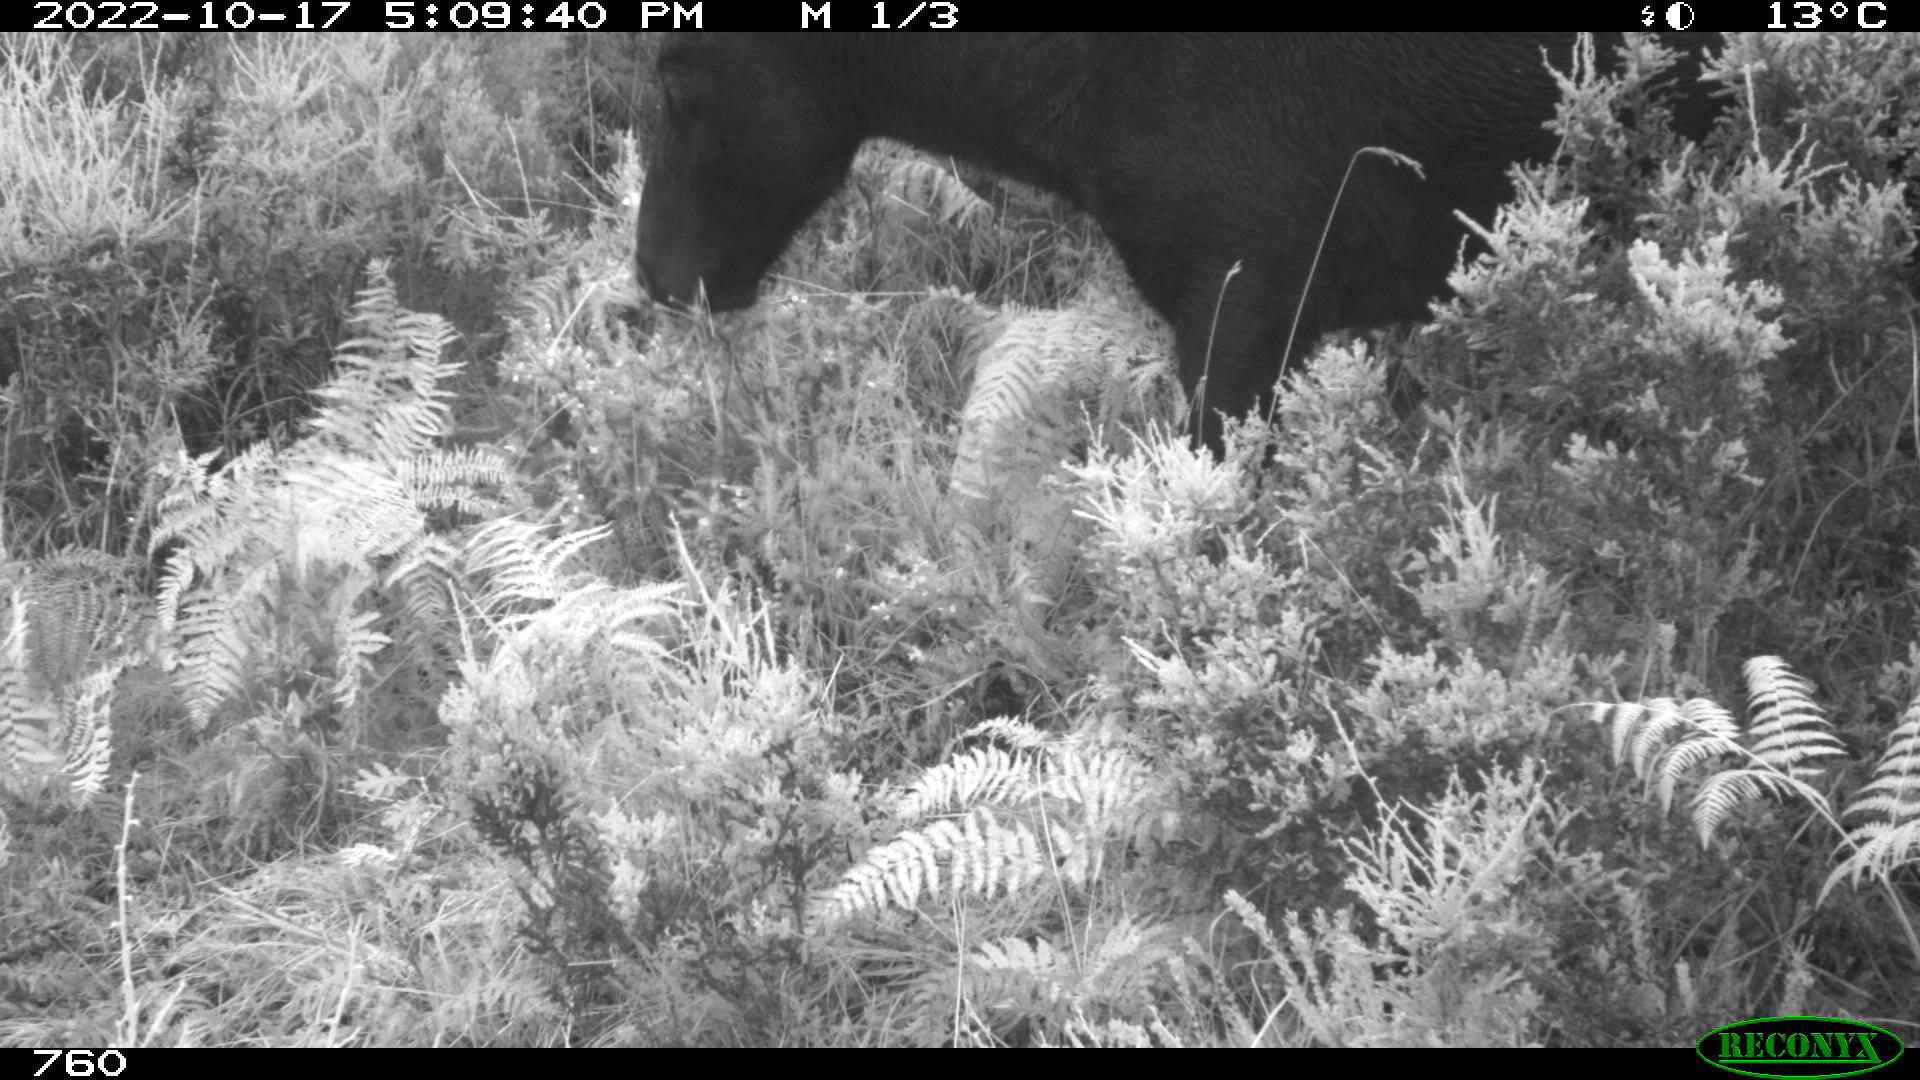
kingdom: Animalia
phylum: Chordata
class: Mammalia
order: Perissodactyla
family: Equidae
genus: Equus
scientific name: Equus caballus
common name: Horse
